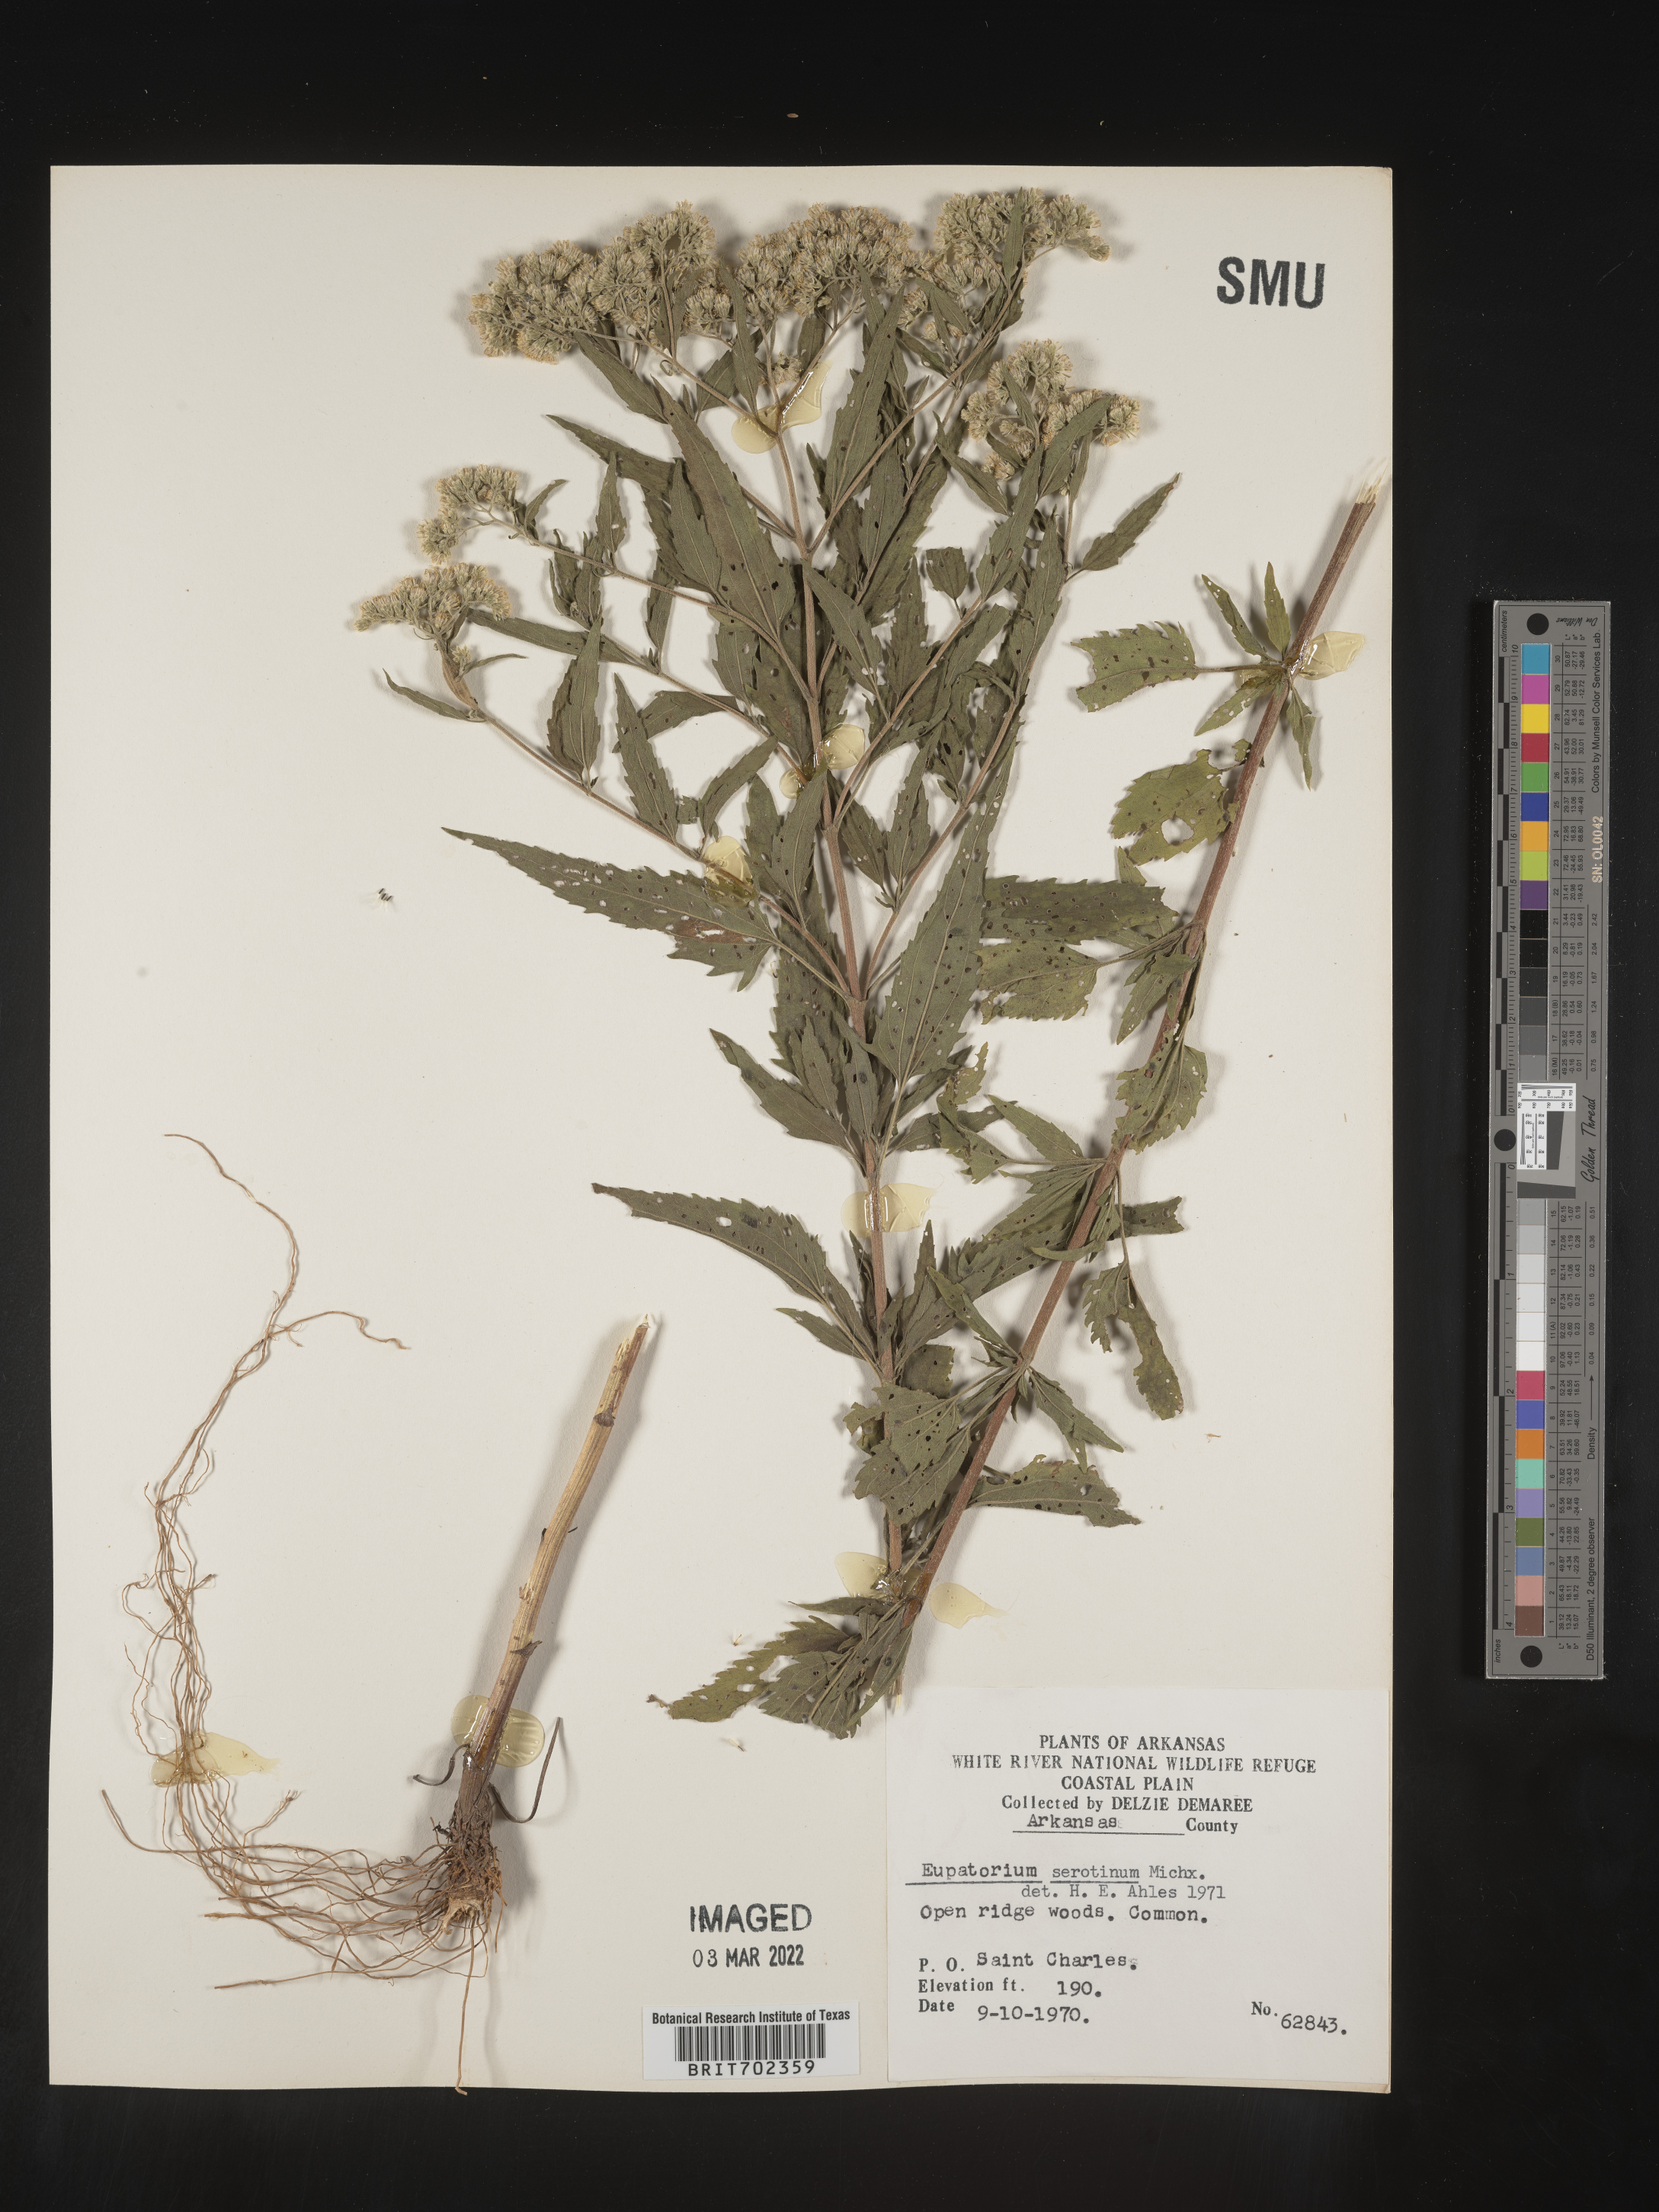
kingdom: Plantae
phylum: Tracheophyta
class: Magnoliopsida
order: Asterales
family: Asteraceae
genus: Eupatorium
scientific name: Eupatorium serotinum
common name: Late boneset
